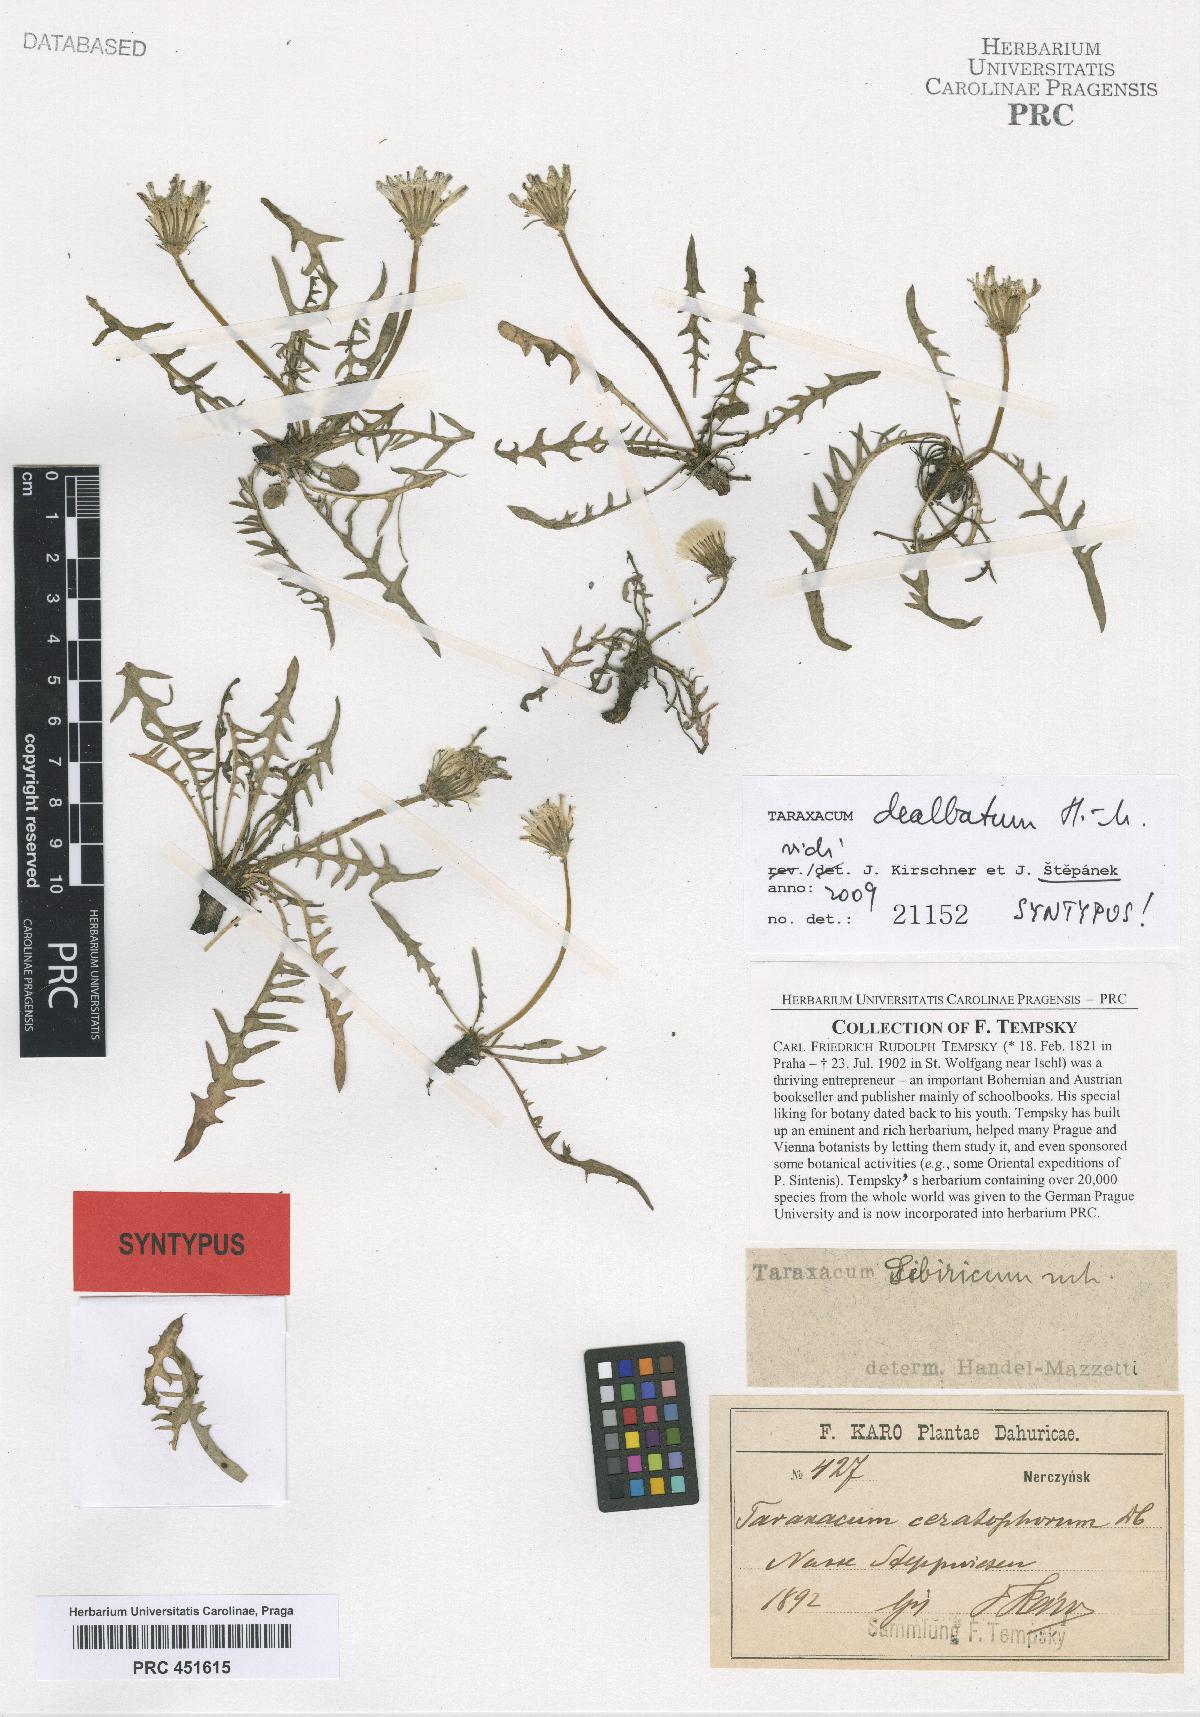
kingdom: Plantae
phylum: Tracheophyta
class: Magnoliopsida
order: Asterales
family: Asteraceae
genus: Taraxacum
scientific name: Taraxacum dealbatum
